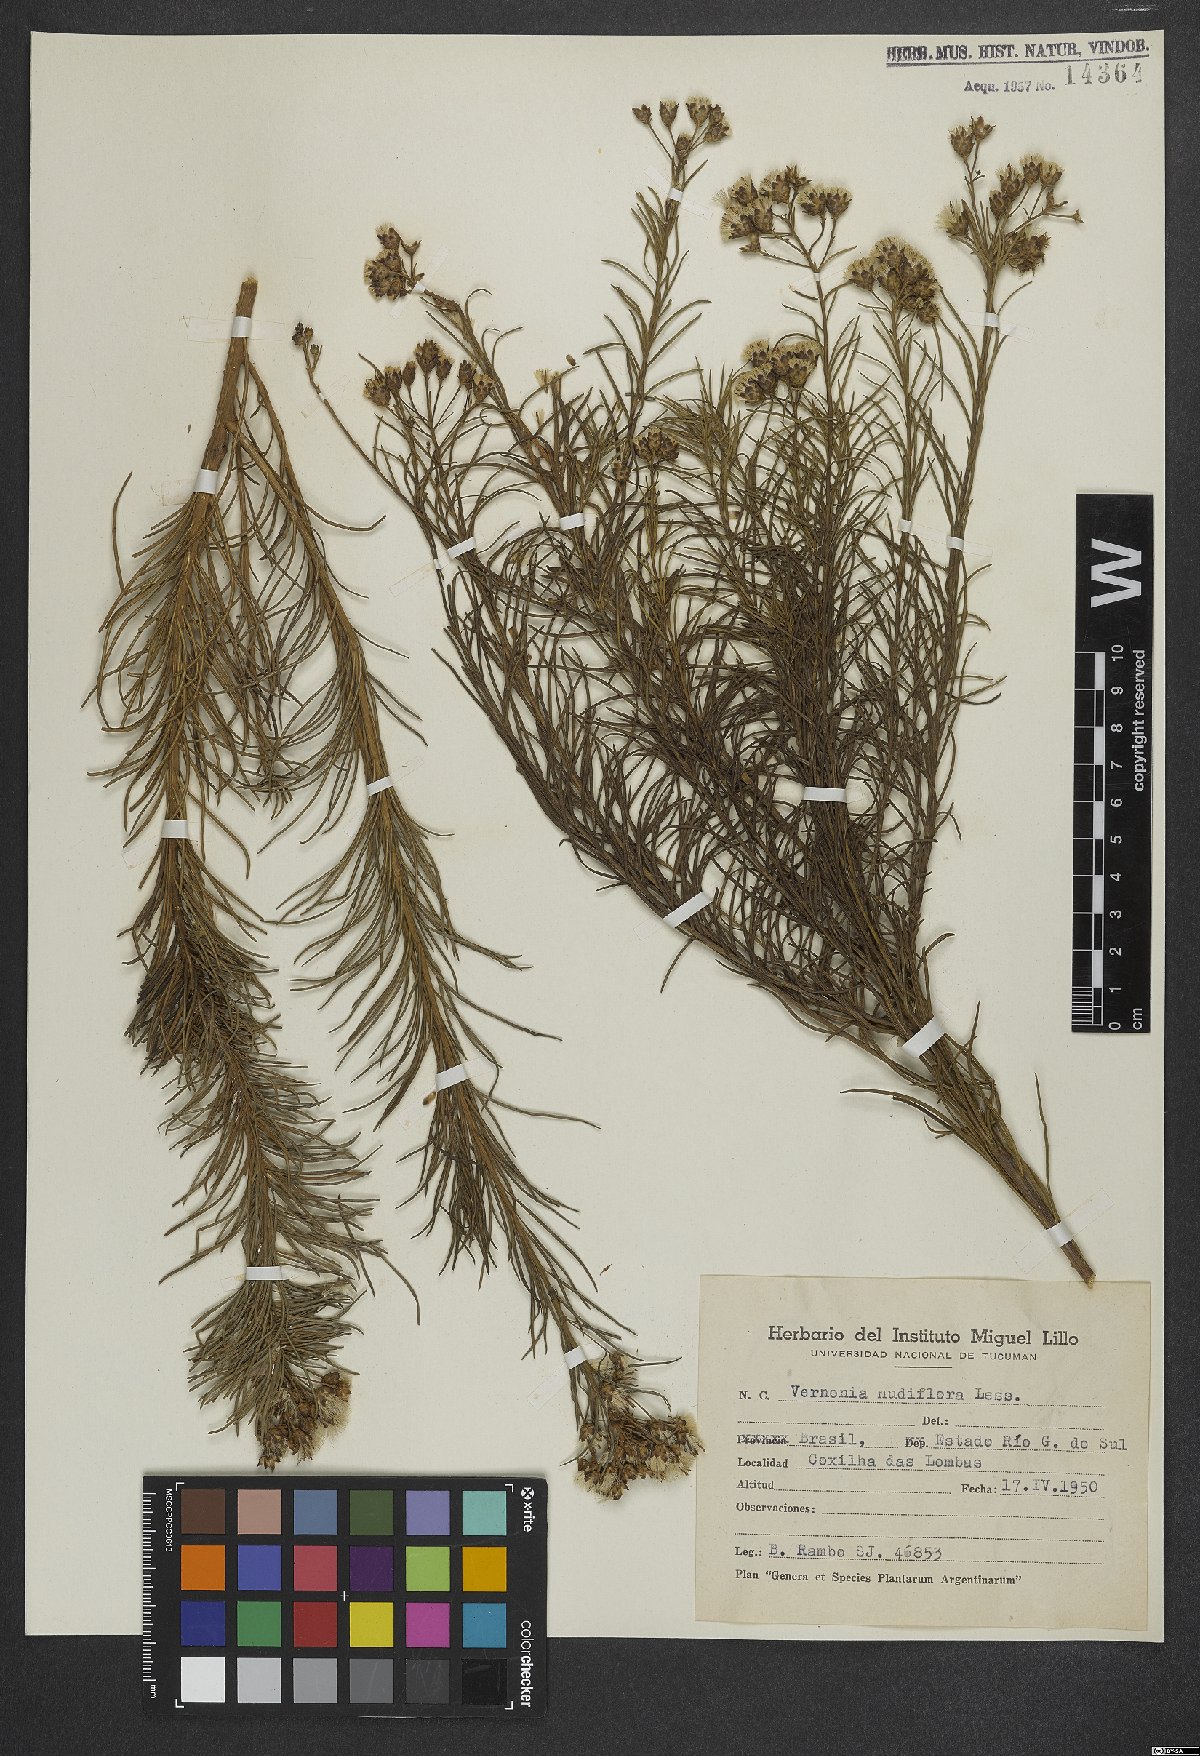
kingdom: Plantae
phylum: Tracheophyta
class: Magnoliopsida
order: Asterales
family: Asteraceae
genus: Vernonanthura
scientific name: Vernonanthura nudiflora
